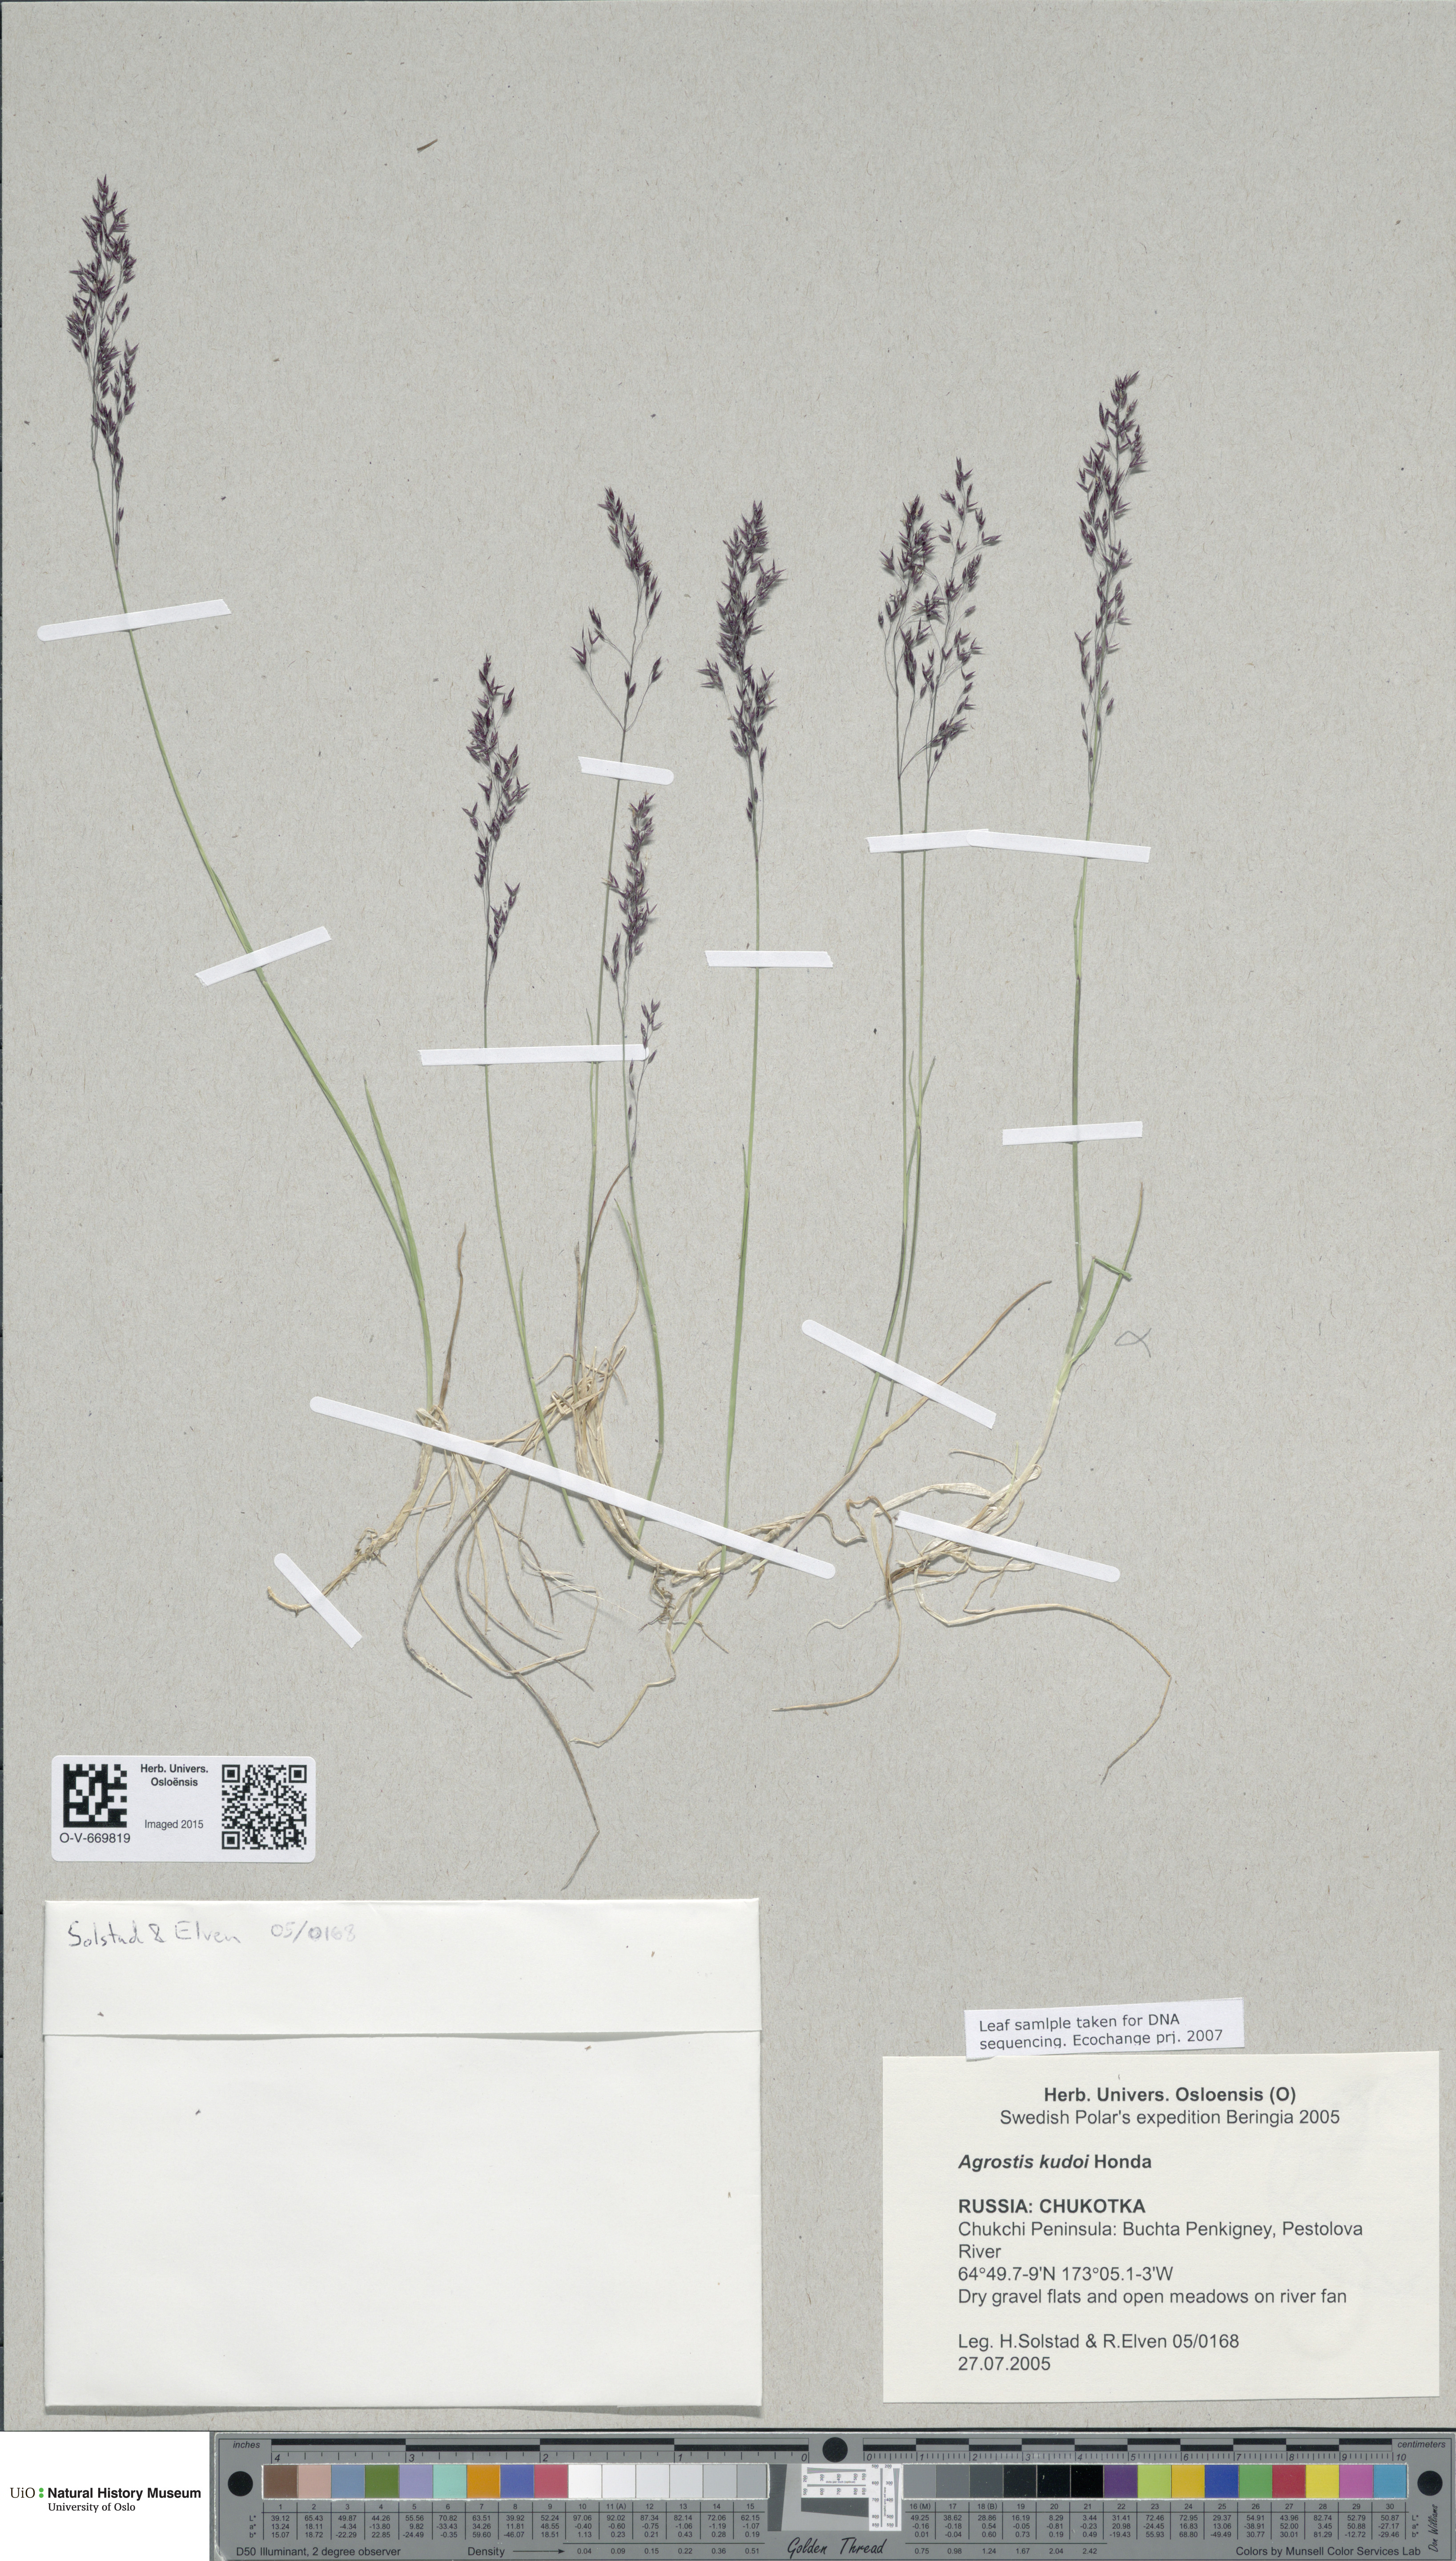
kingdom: Plantae
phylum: Tracheophyta
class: Liliopsida
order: Poales
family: Poaceae
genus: Agrostis
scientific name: Agrostis vinealis
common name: Brown bent
